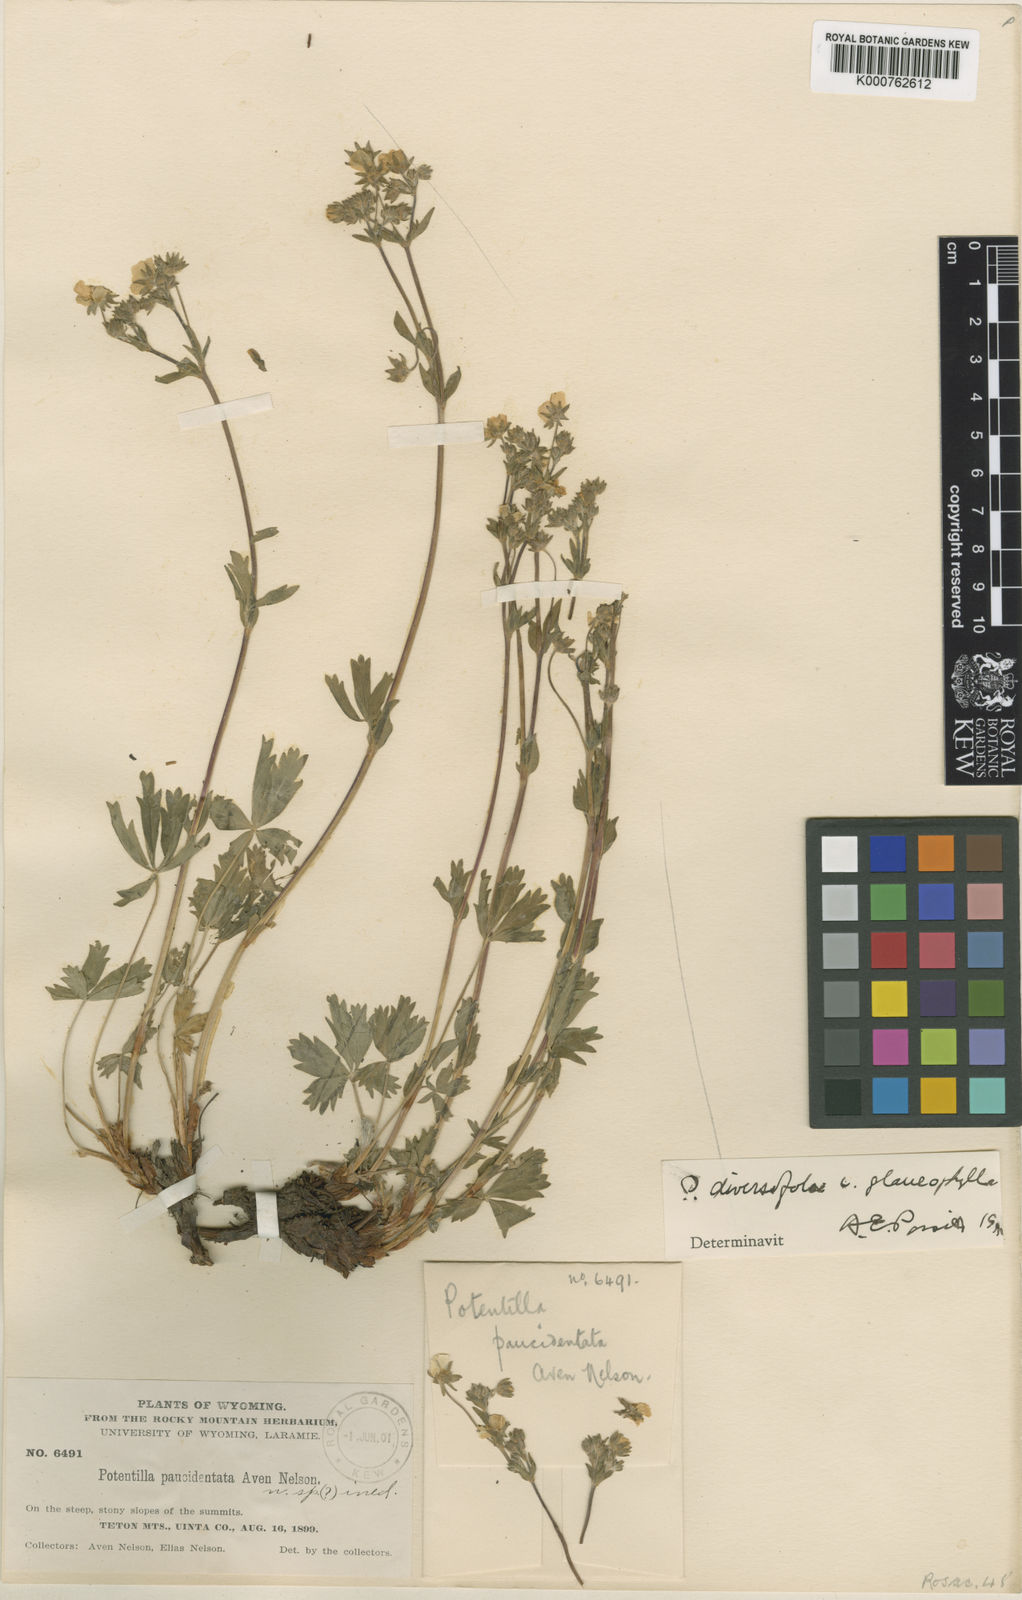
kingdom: Plantae
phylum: Tracheophyta
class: Magnoliopsida
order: Rosales
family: Rosaceae
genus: Potentilla
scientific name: Potentilla glaucophylla
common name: Blue-leaved cinquefoil
